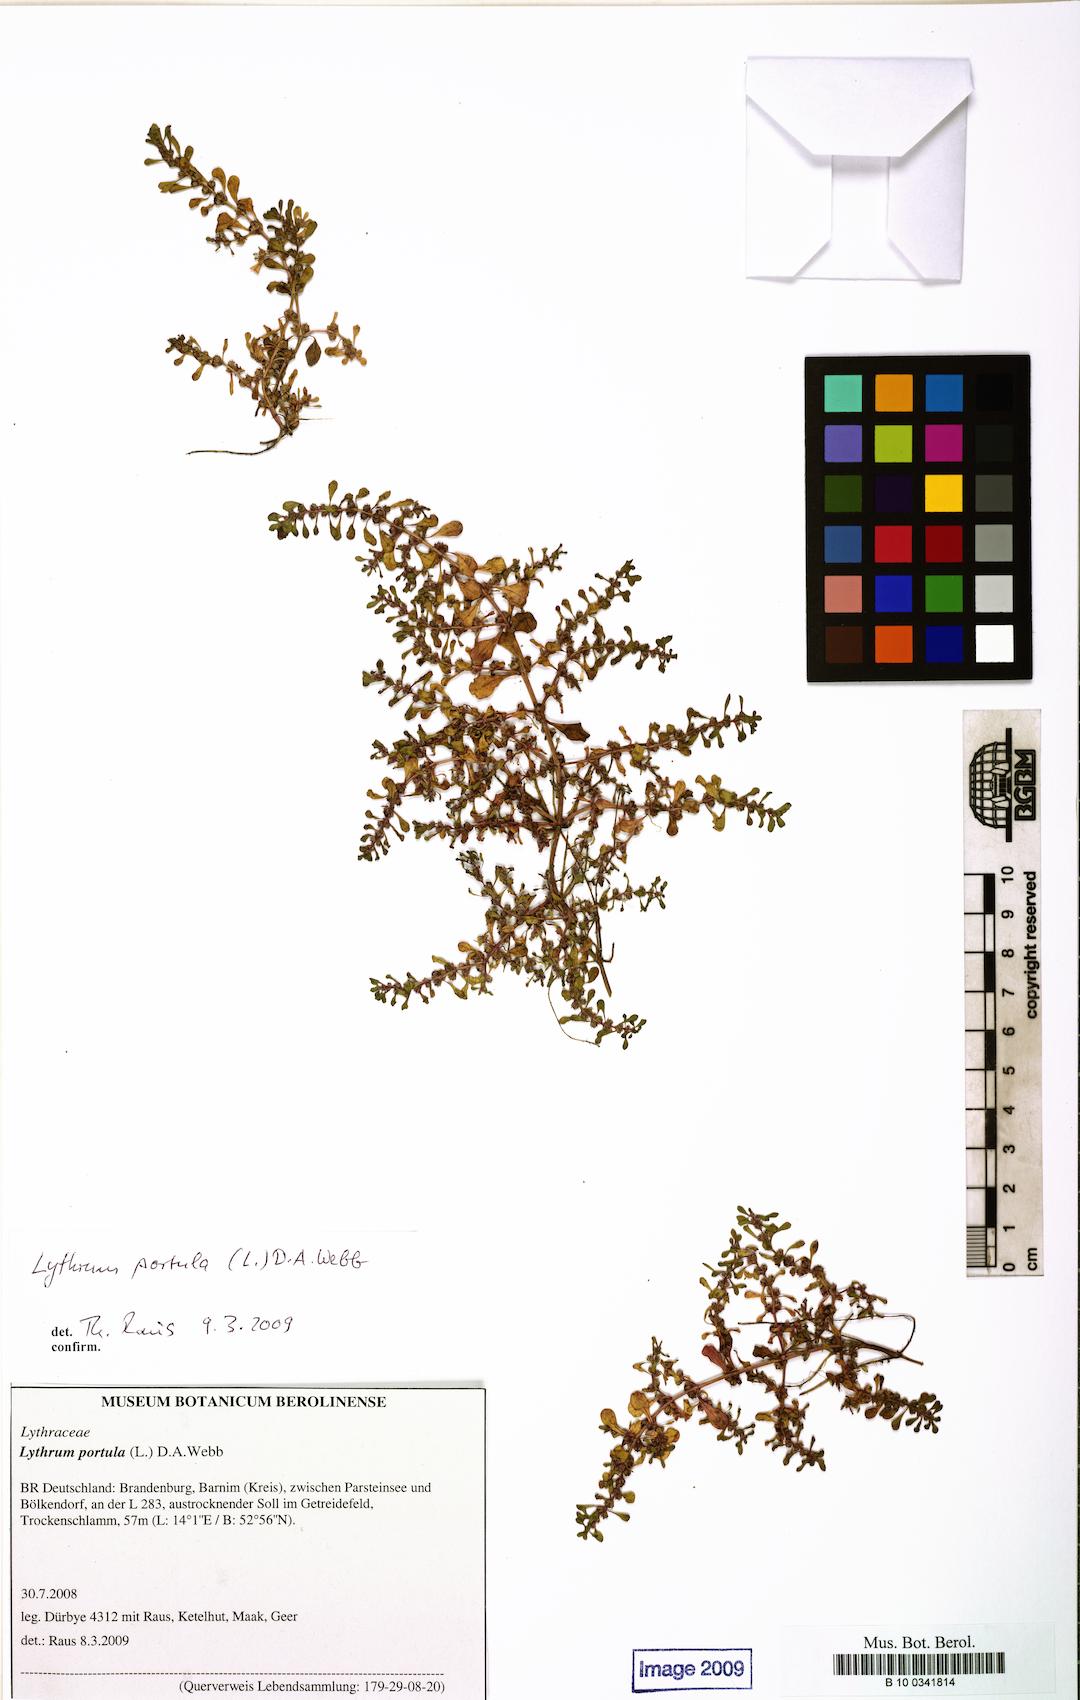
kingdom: Plantae
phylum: Tracheophyta
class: Magnoliopsida
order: Myrtales
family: Lythraceae
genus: Lythrum
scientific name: Lythrum portula
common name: Water purslane
